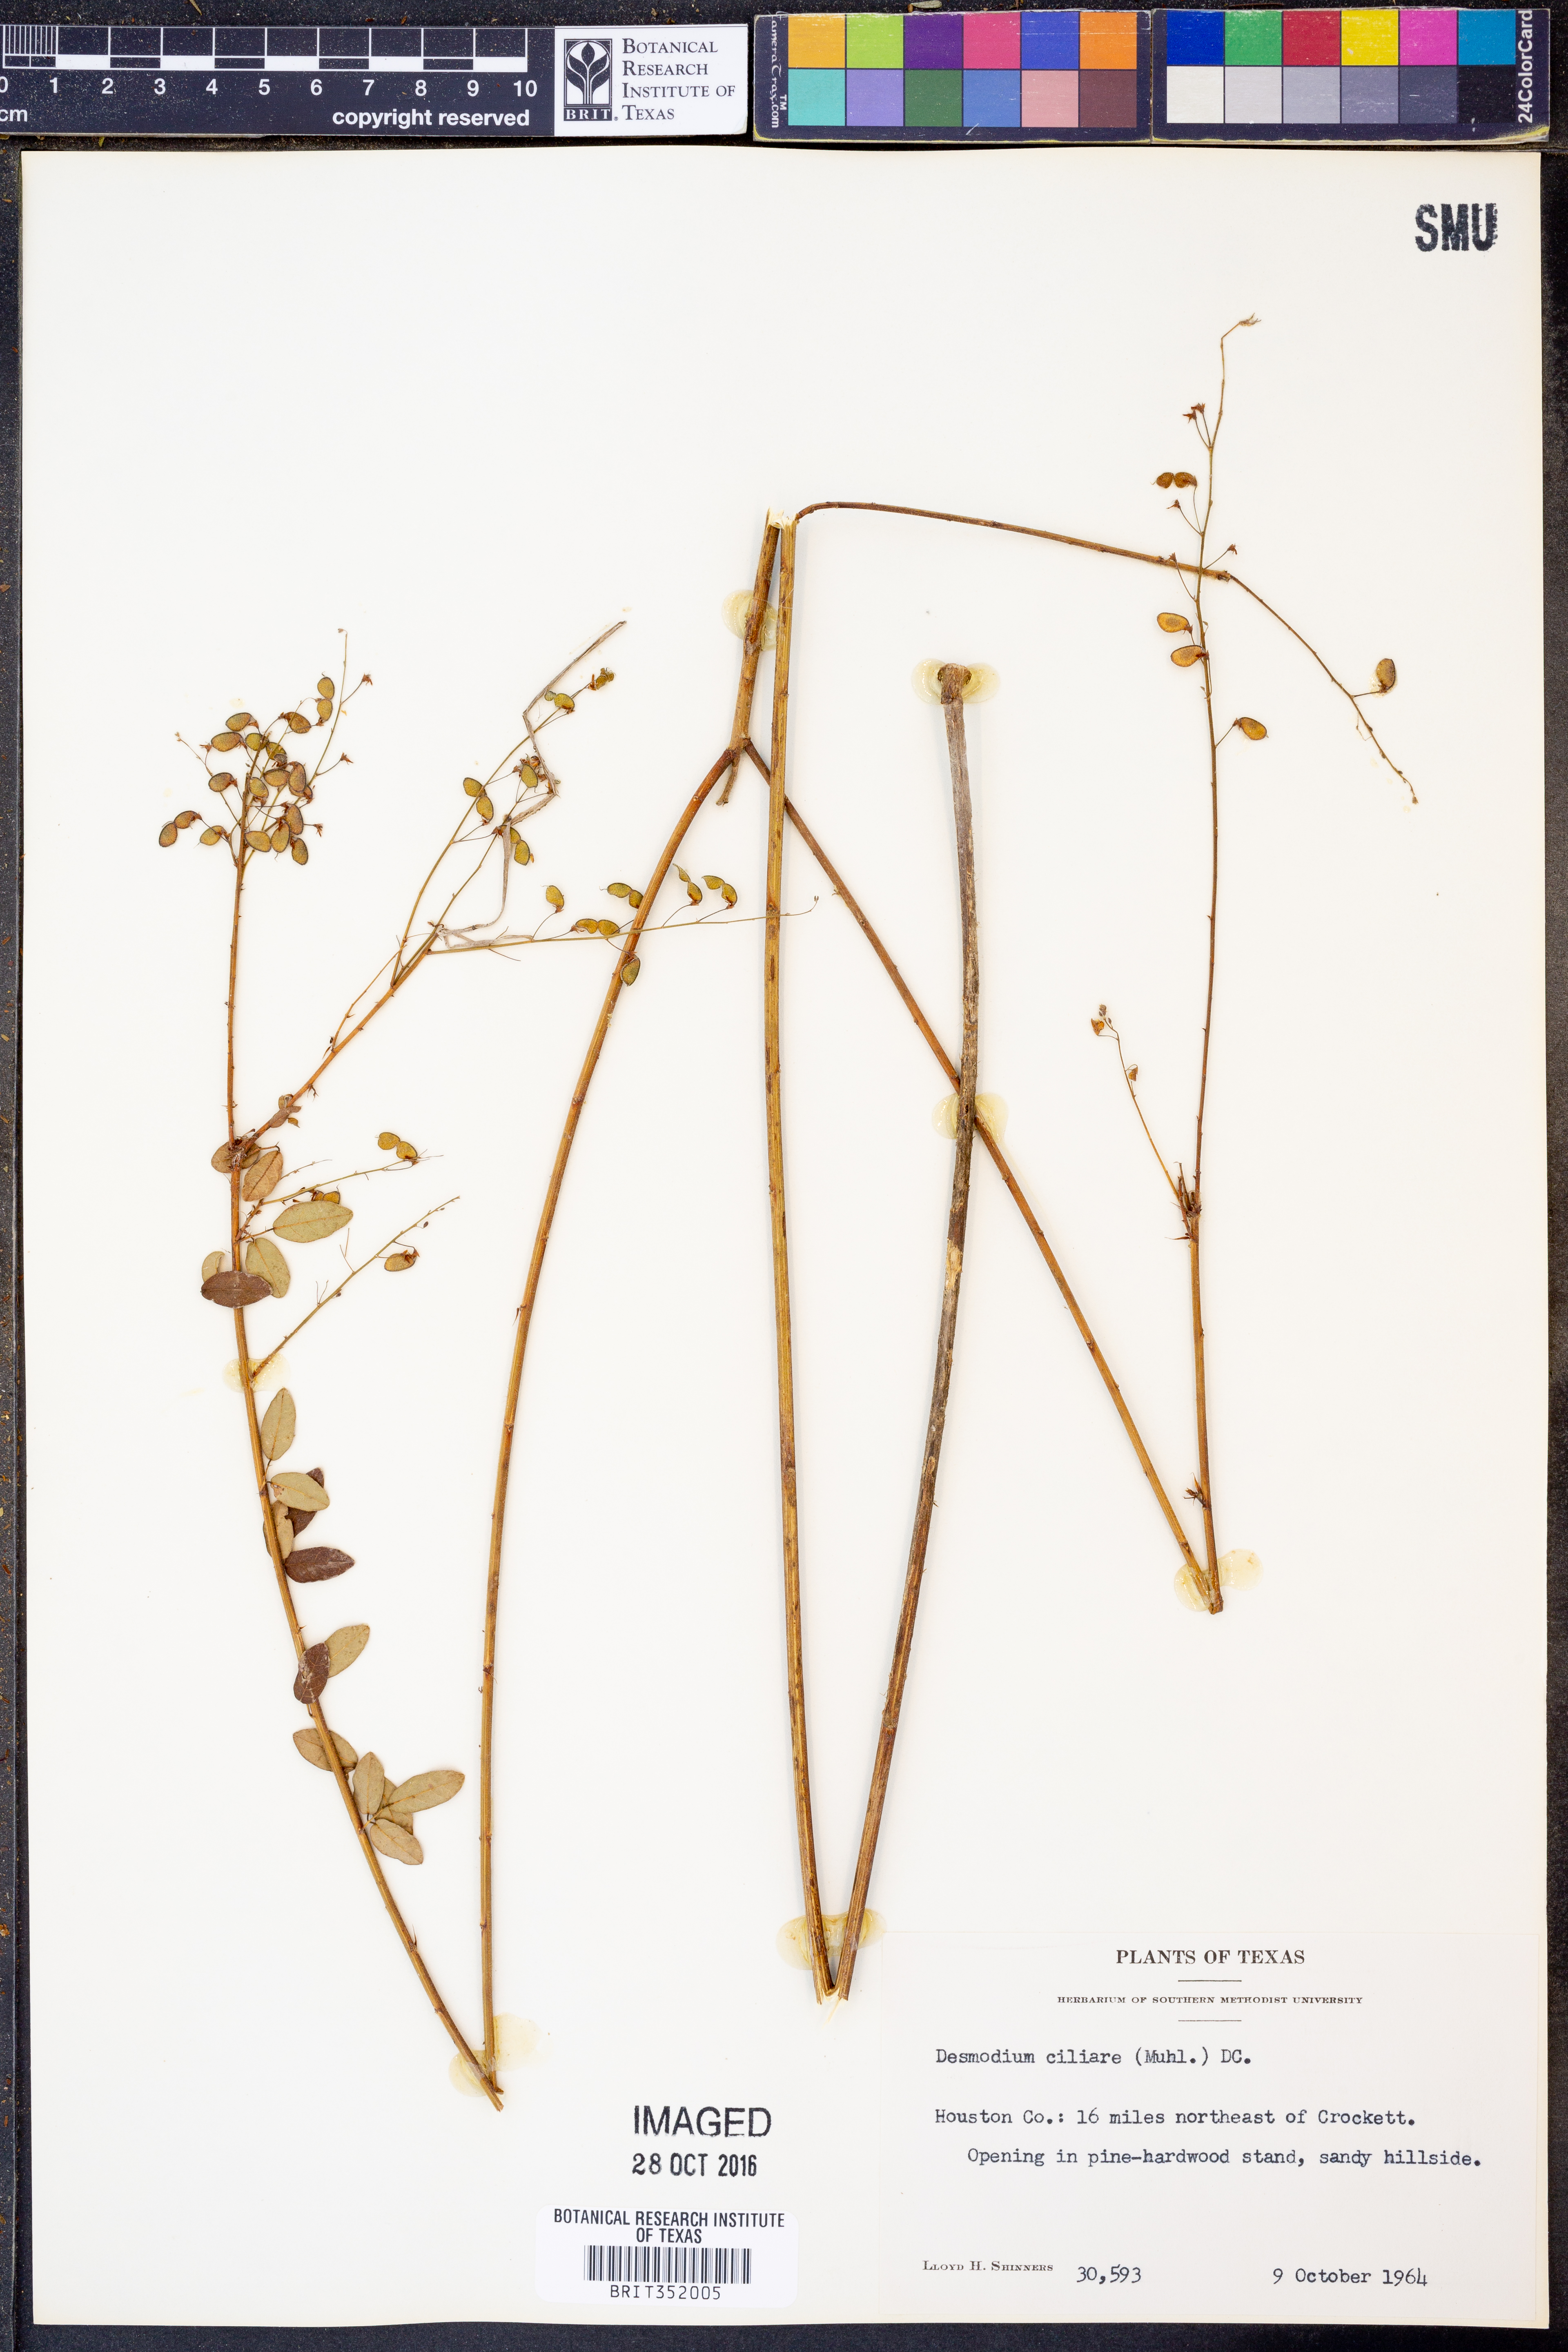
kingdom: Plantae
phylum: Tracheophyta
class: Magnoliopsida
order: Fabales
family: Fabaceae
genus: Desmodium
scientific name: Desmodium ciliare
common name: Hairy small-leaf ticktrefoil
